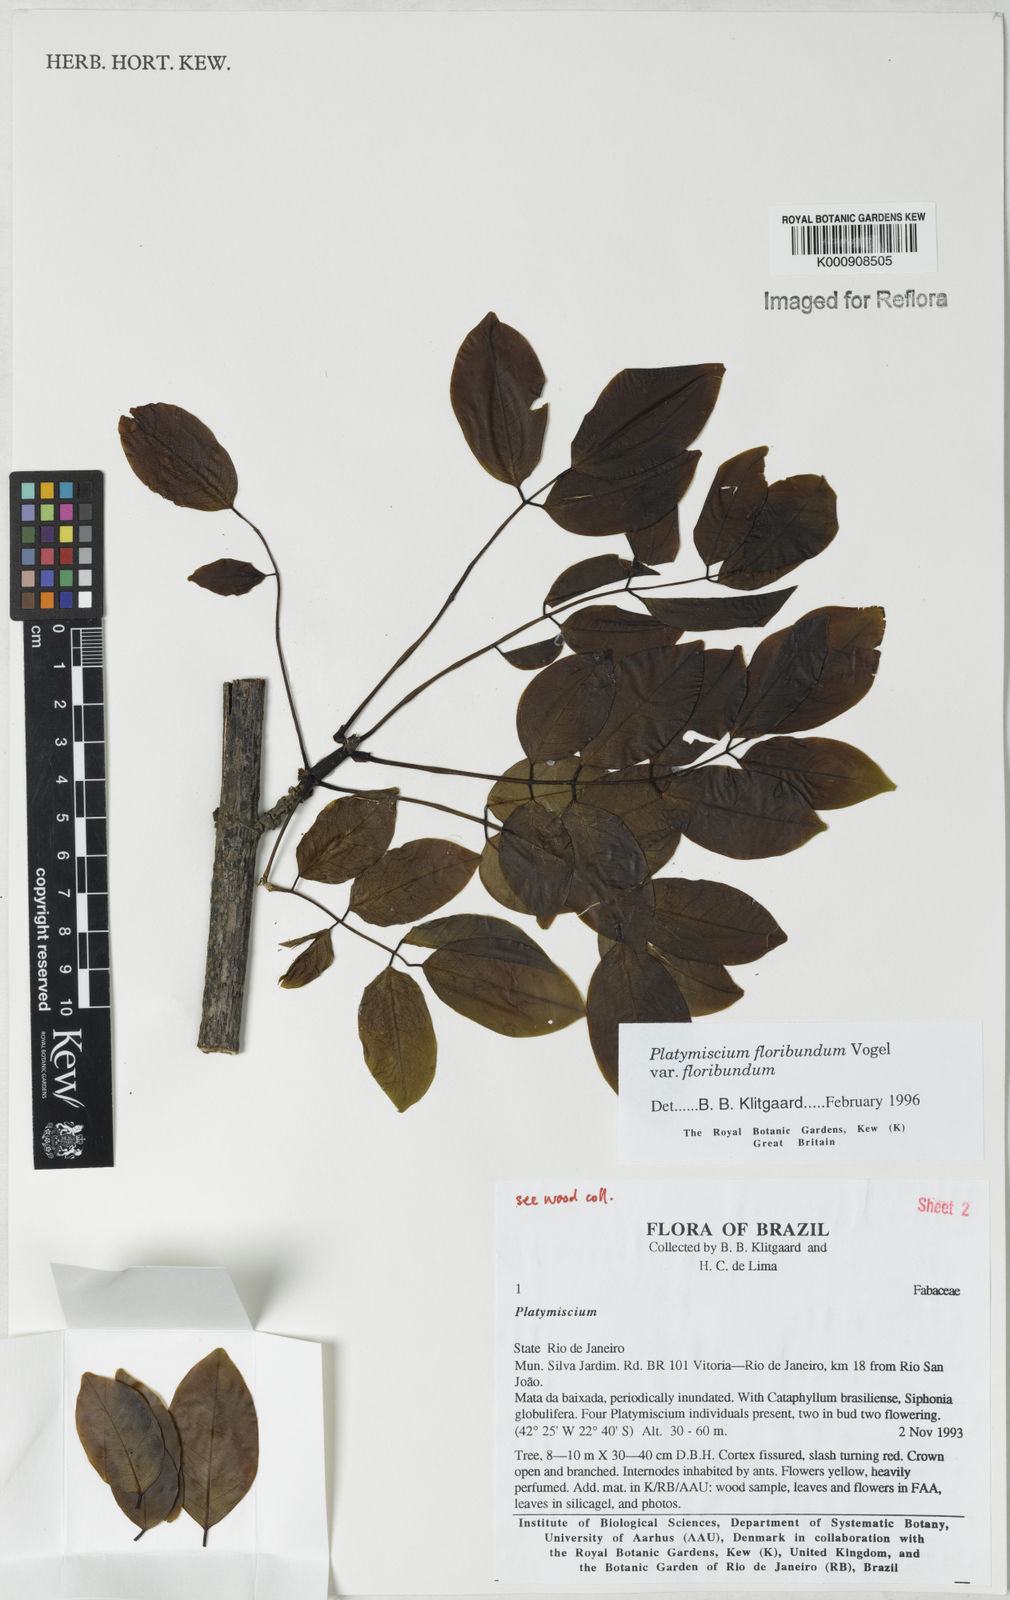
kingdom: Plantae
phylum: Tracheophyta
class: Magnoliopsida
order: Fabales
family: Fabaceae
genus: Platymiscium
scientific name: Platymiscium floribundum
